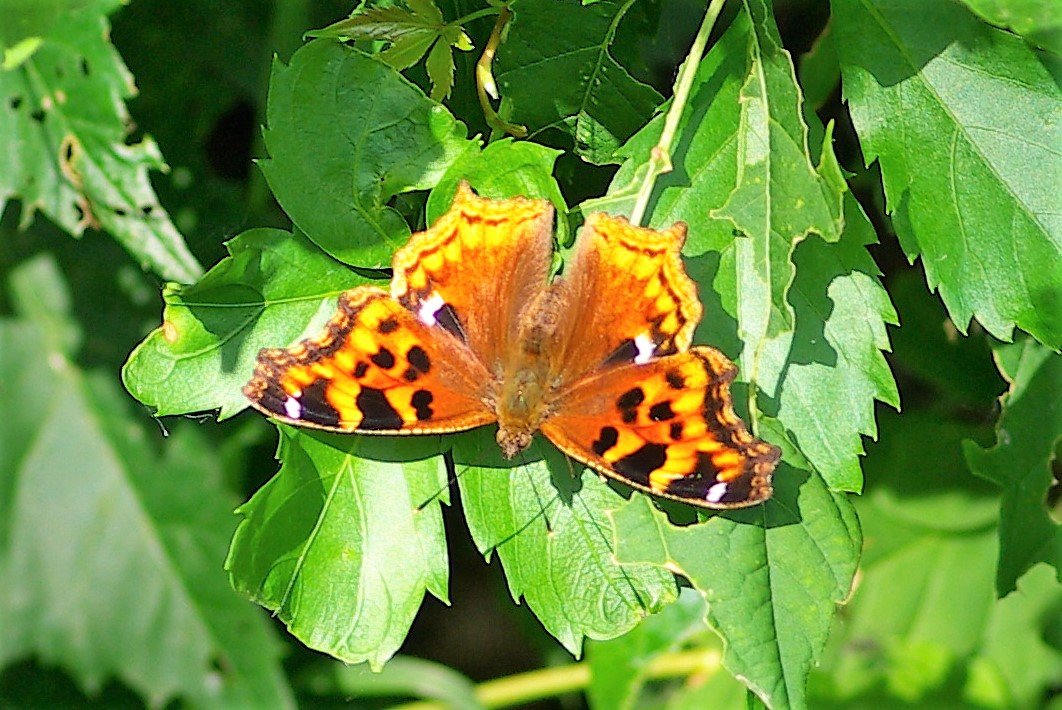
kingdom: Animalia
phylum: Arthropoda
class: Insecta
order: Lepidoptera
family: Nymphalidae
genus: Polygonia
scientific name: Polygonia vaualbum
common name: Compton Tortoiseshell
